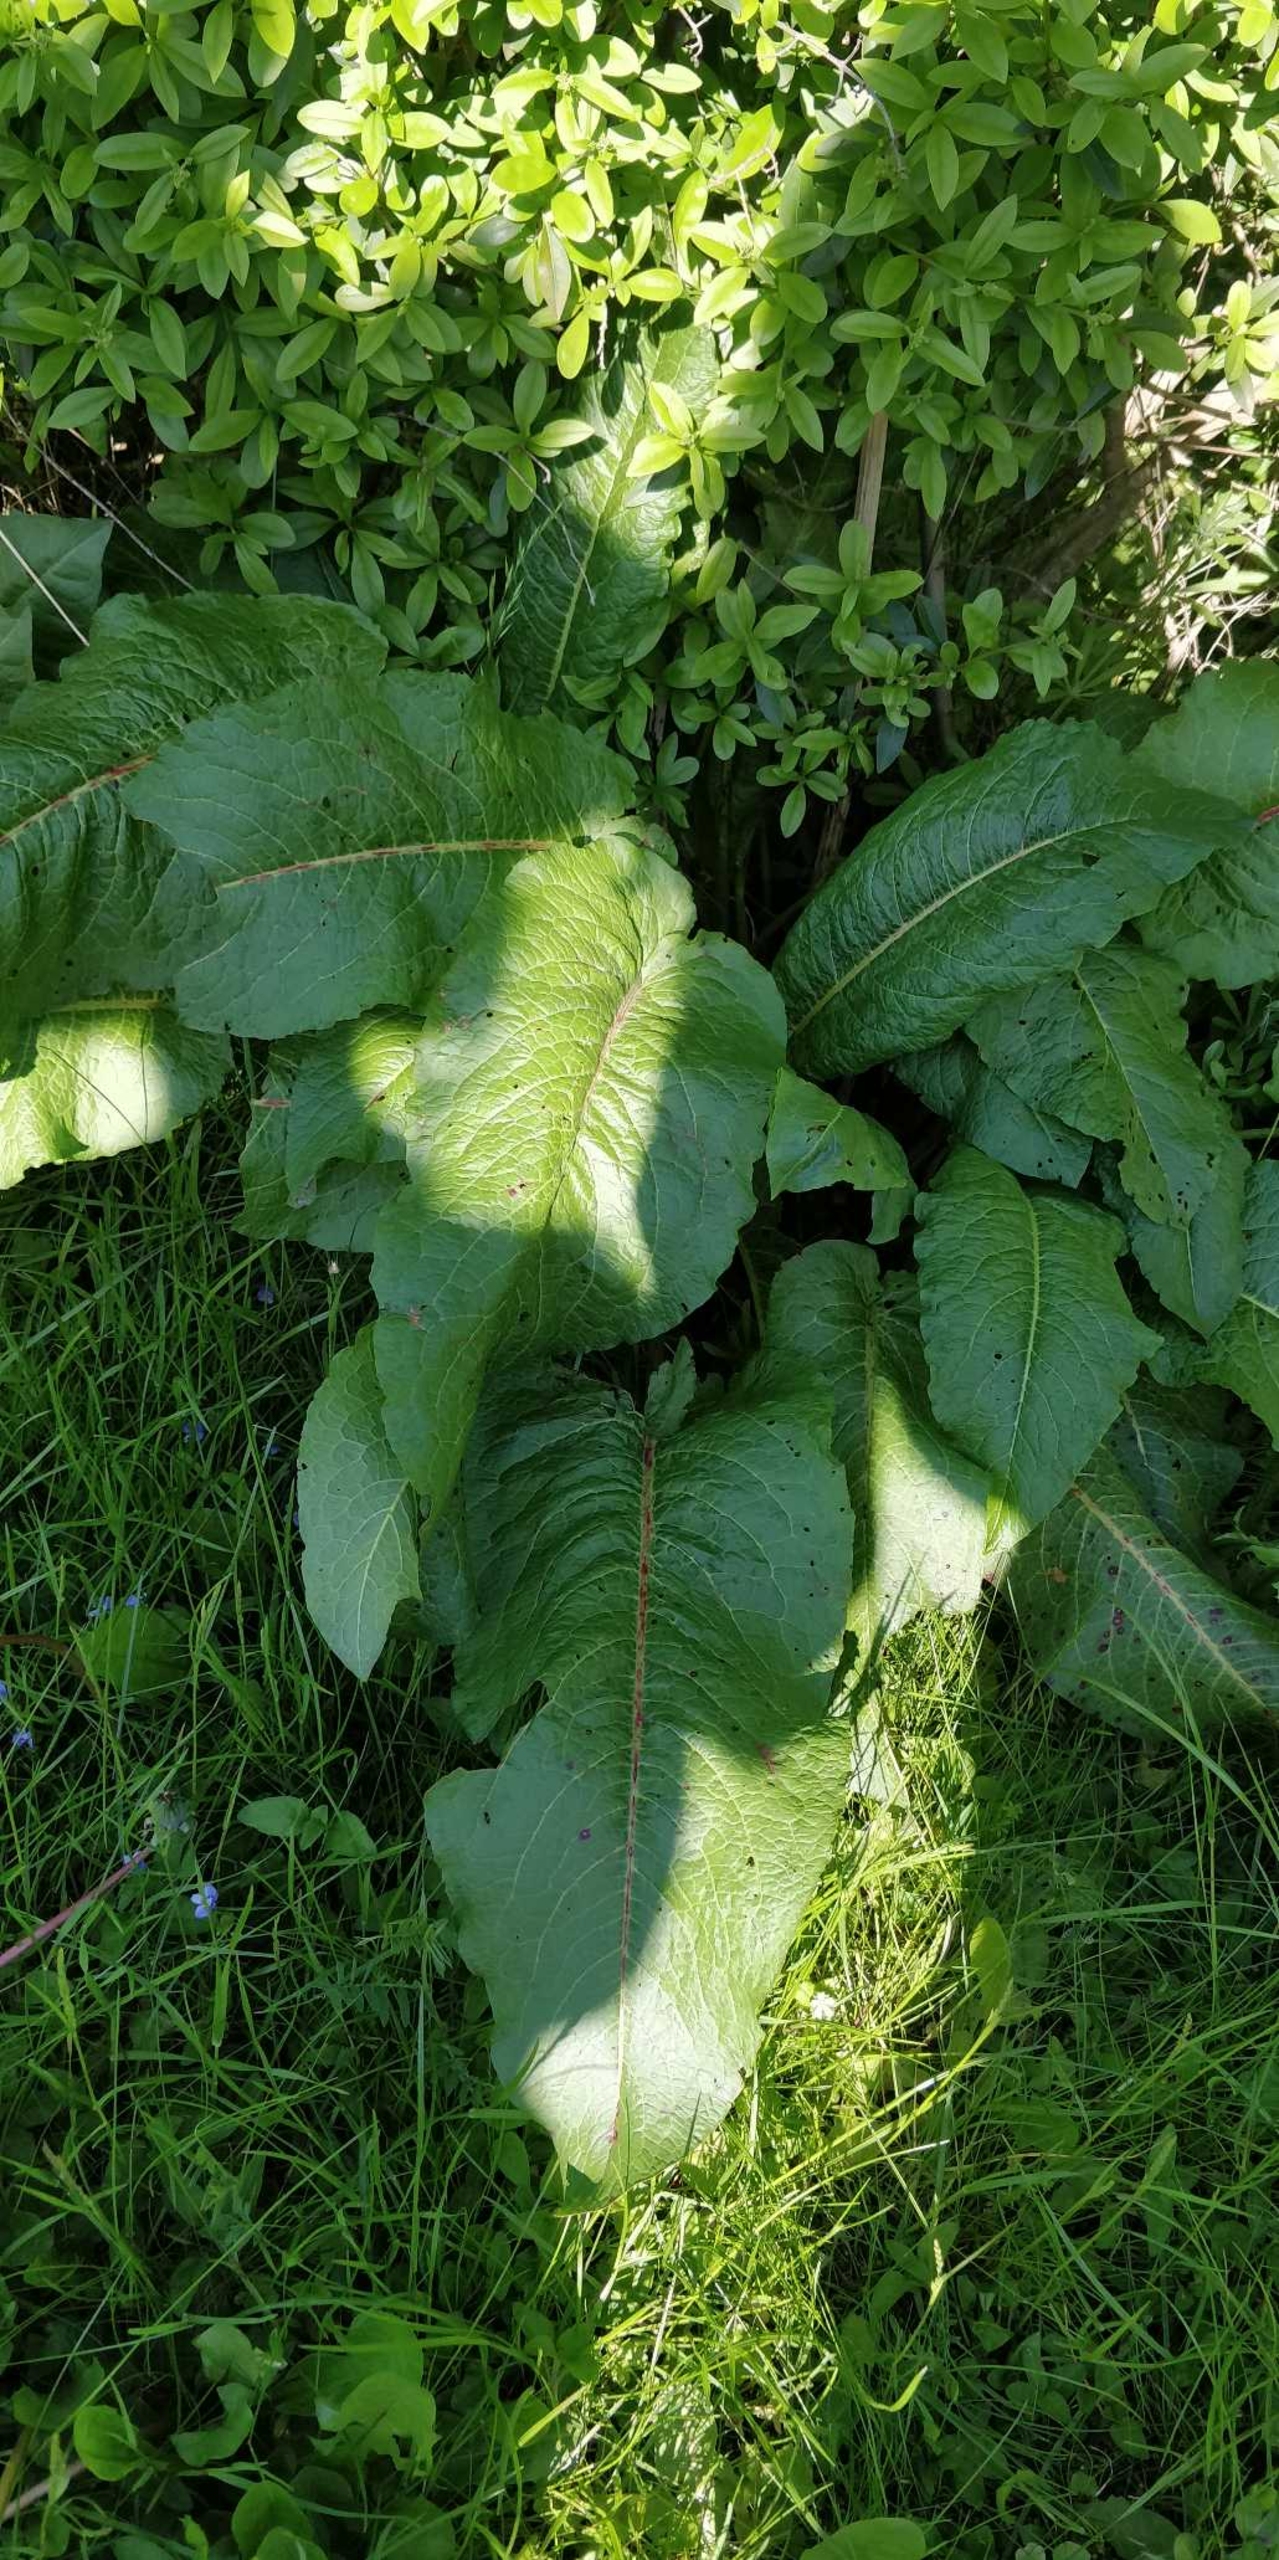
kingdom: Plantae
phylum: Tracheophyta
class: Magnoliopsida
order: Caryophyllales
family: Polygonaceae
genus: Rumex
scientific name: Rumex obtusifolius
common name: Butbladet skræppe
